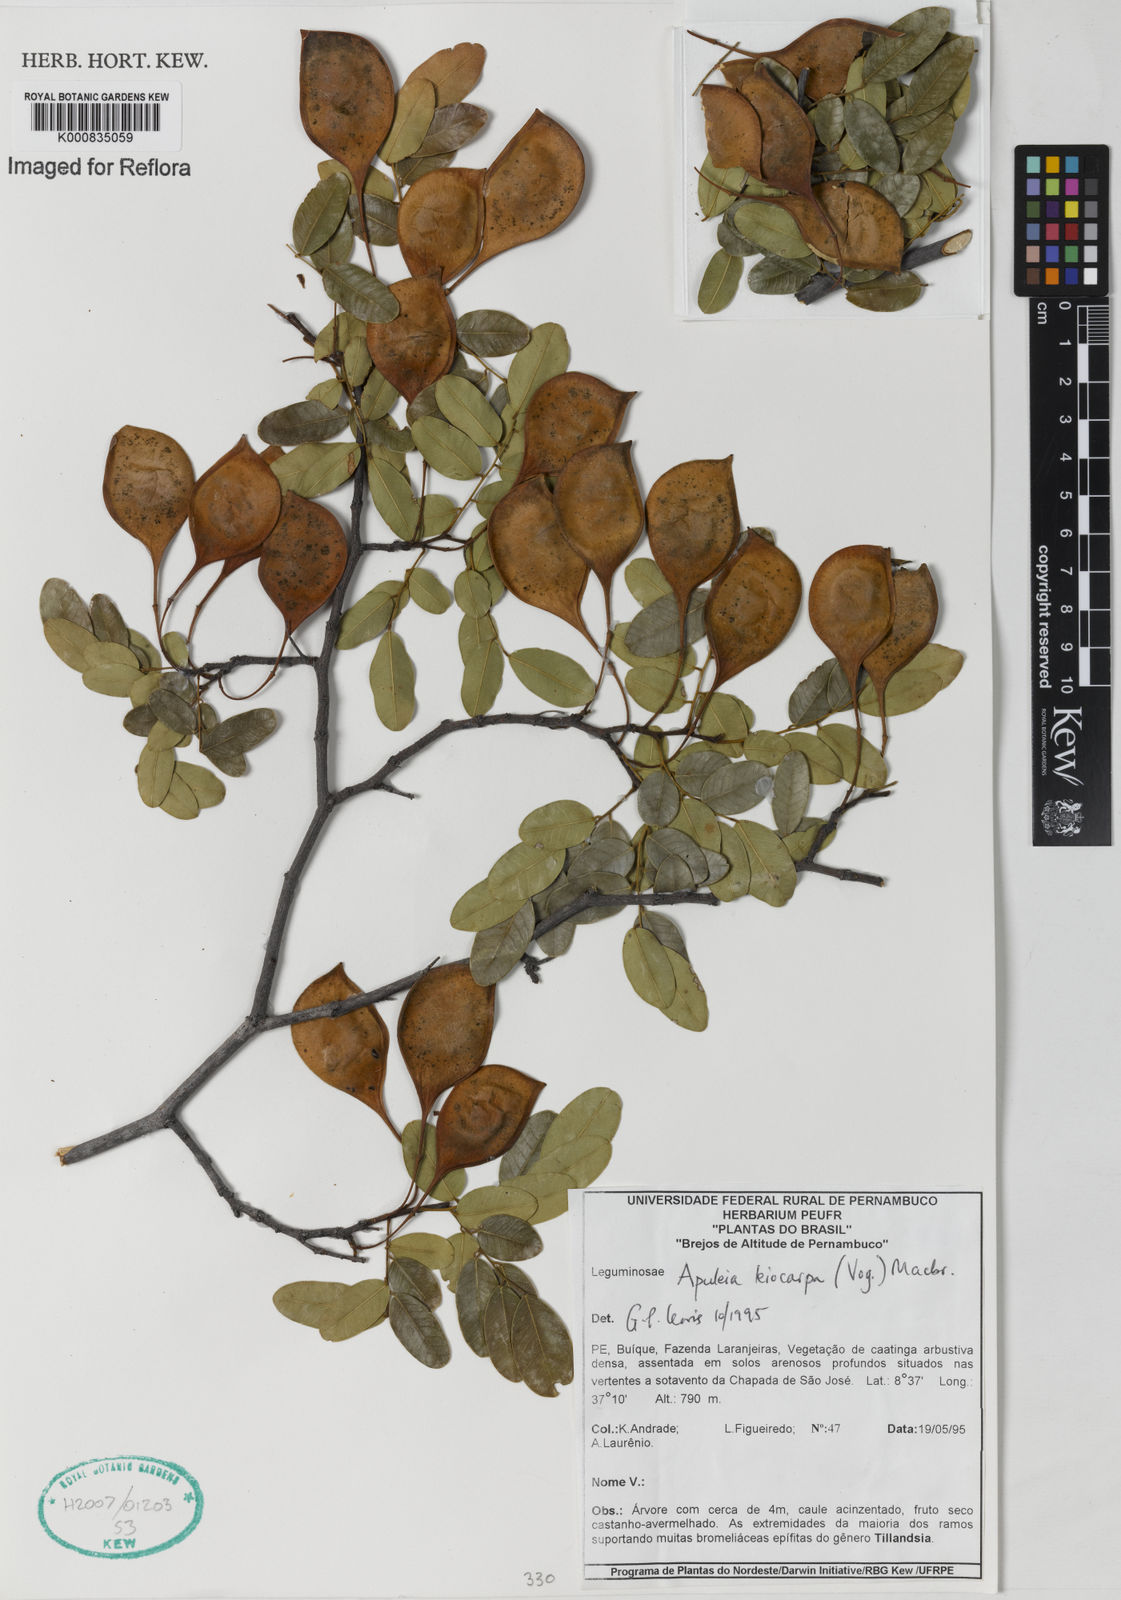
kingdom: Plantae
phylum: Tracheophyta
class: Magnoliopsida
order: Fabales
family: Fabaceae
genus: Apuleia
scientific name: Apuleia leiocarpa
